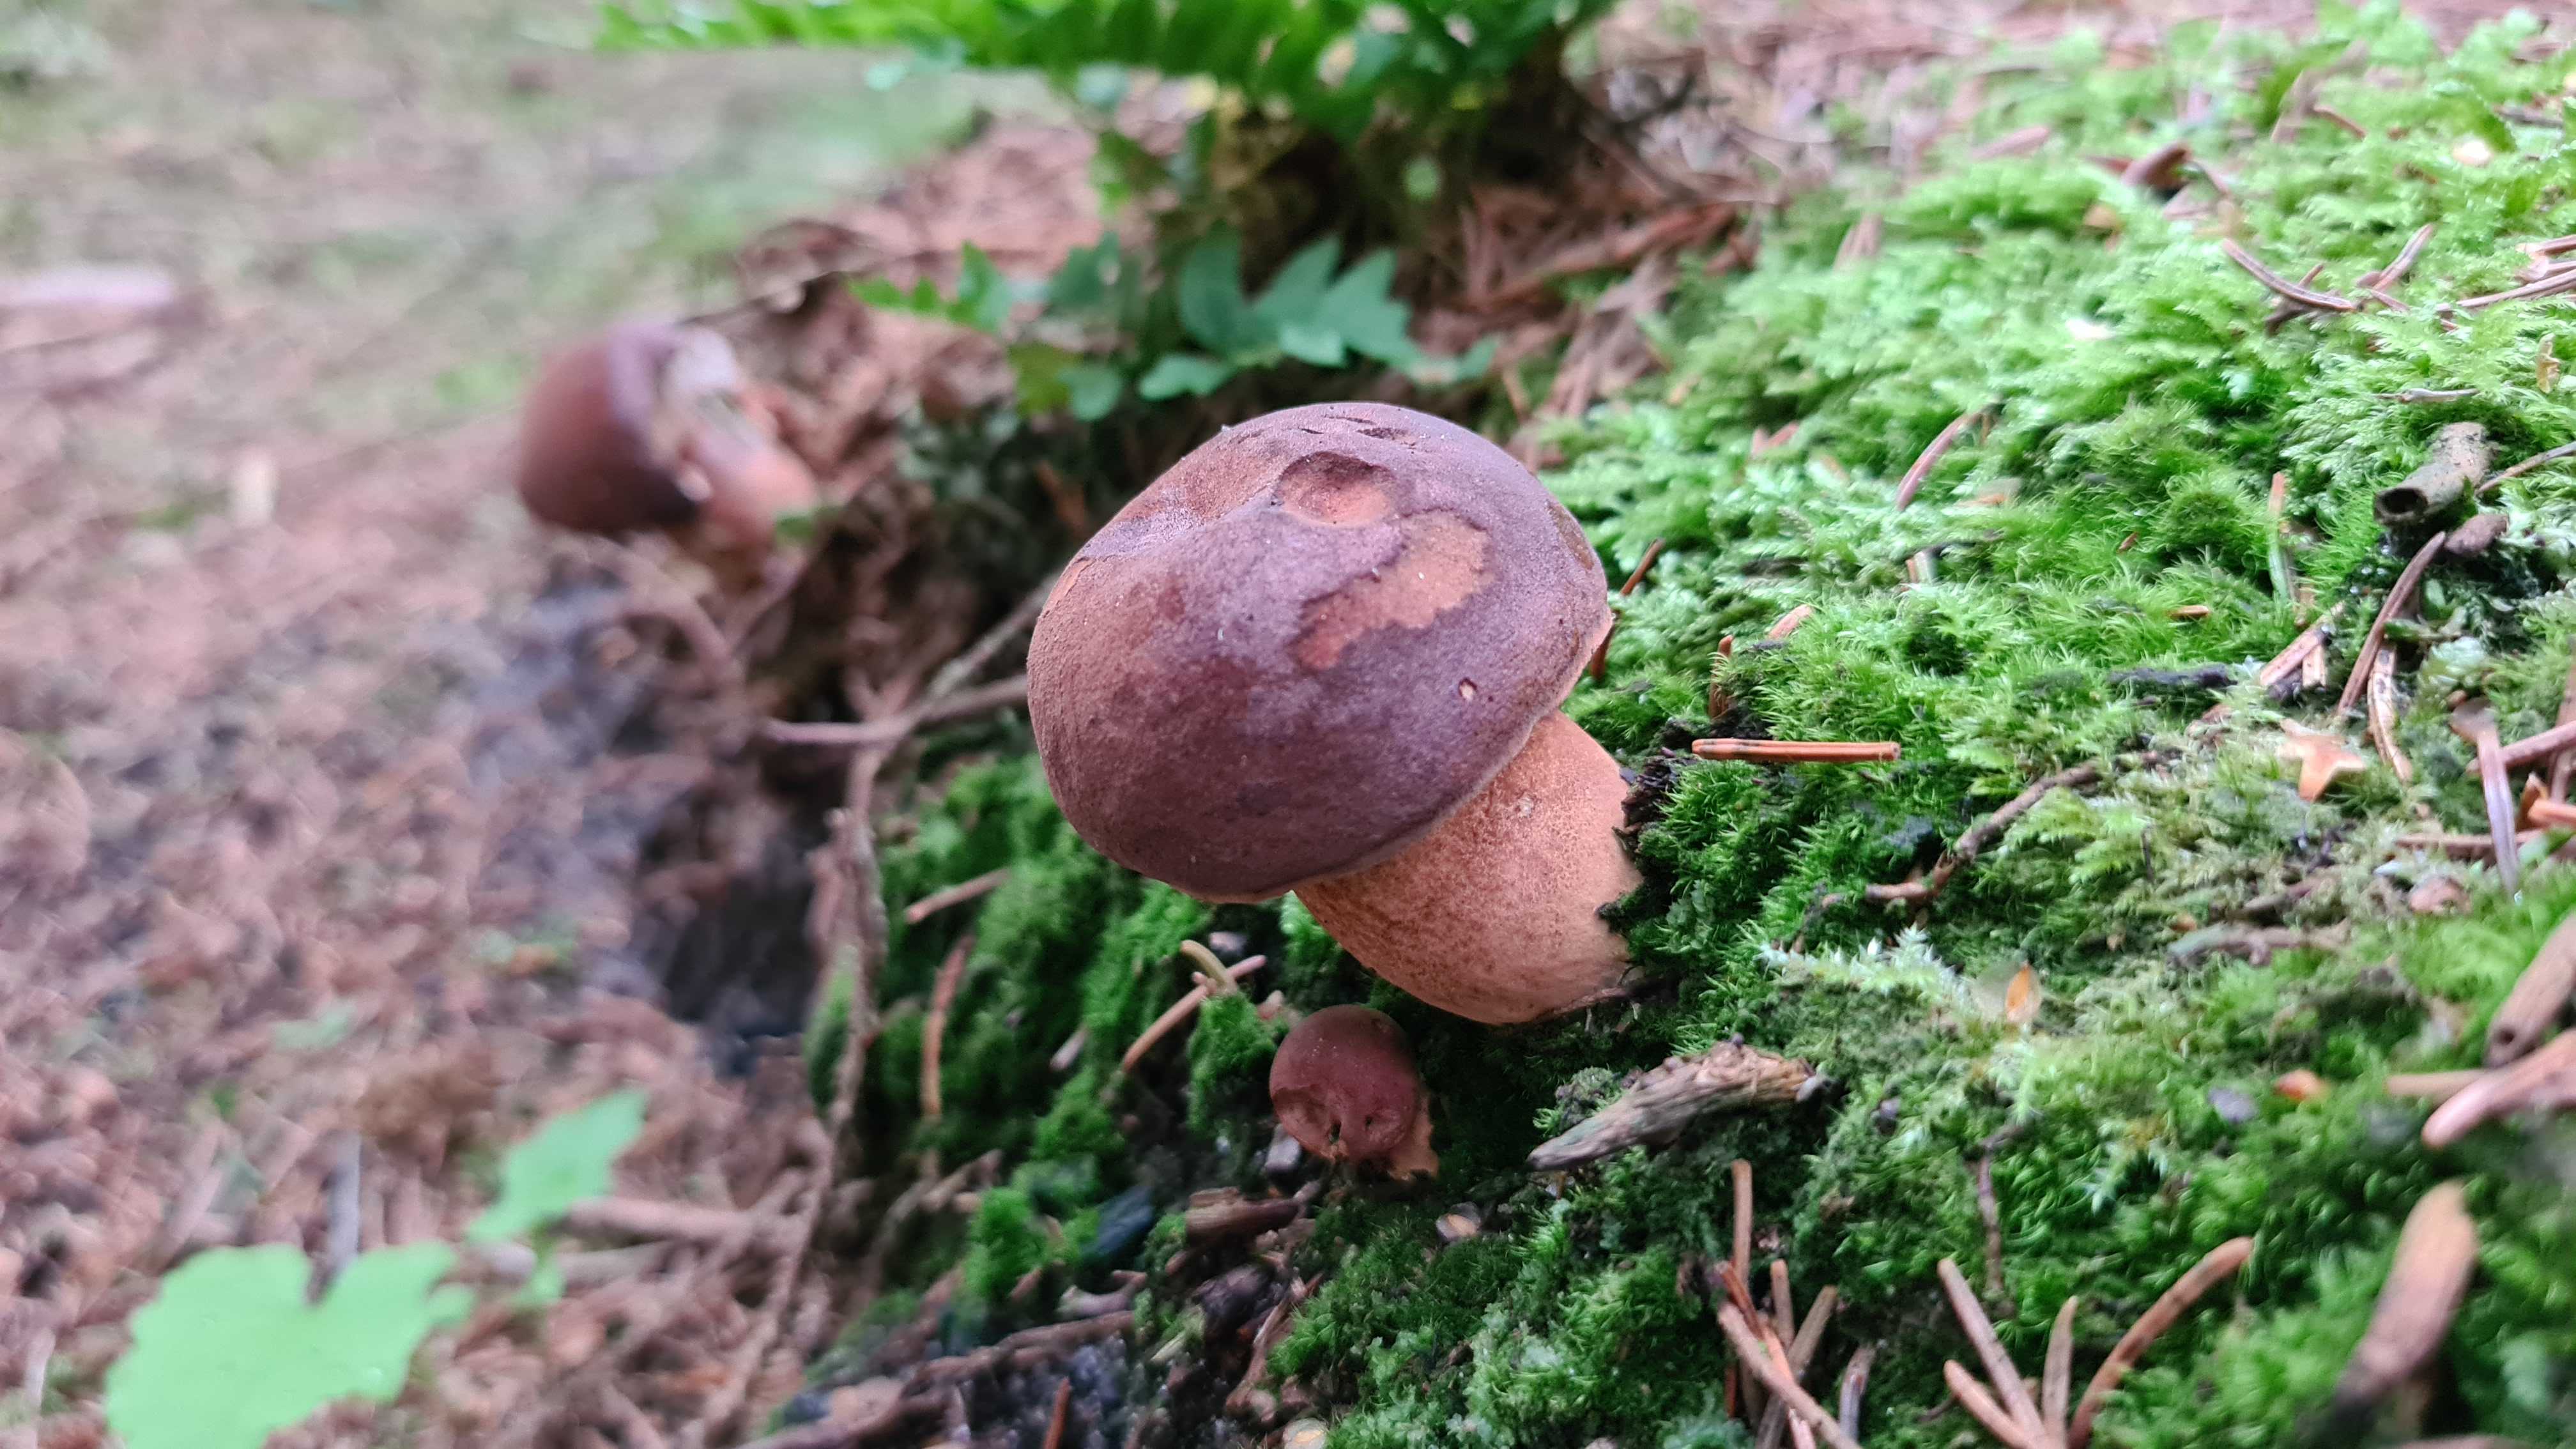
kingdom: Fungi
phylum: Basidiomycota
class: Agaricomycetes
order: Boletales
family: Boletaceae
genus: Imleria
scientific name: Imleria badia
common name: brunstokket rørhat
